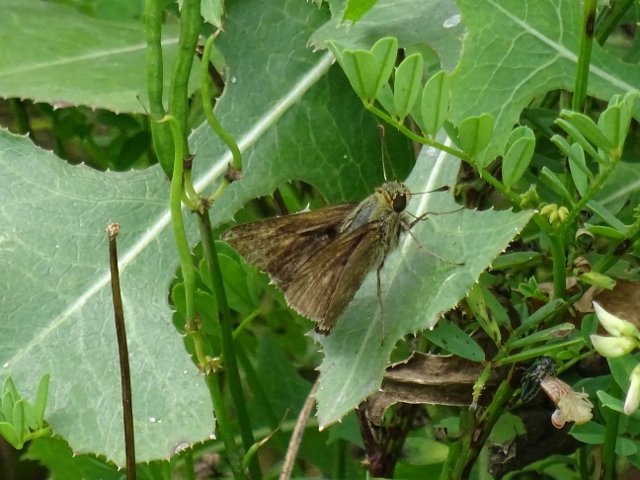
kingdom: Animalia
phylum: Arthropoda
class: Insecta
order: Lepidoptera
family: Hesperiidae
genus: Euphyes
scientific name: Euphyes vestris
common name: Dun Skipper
